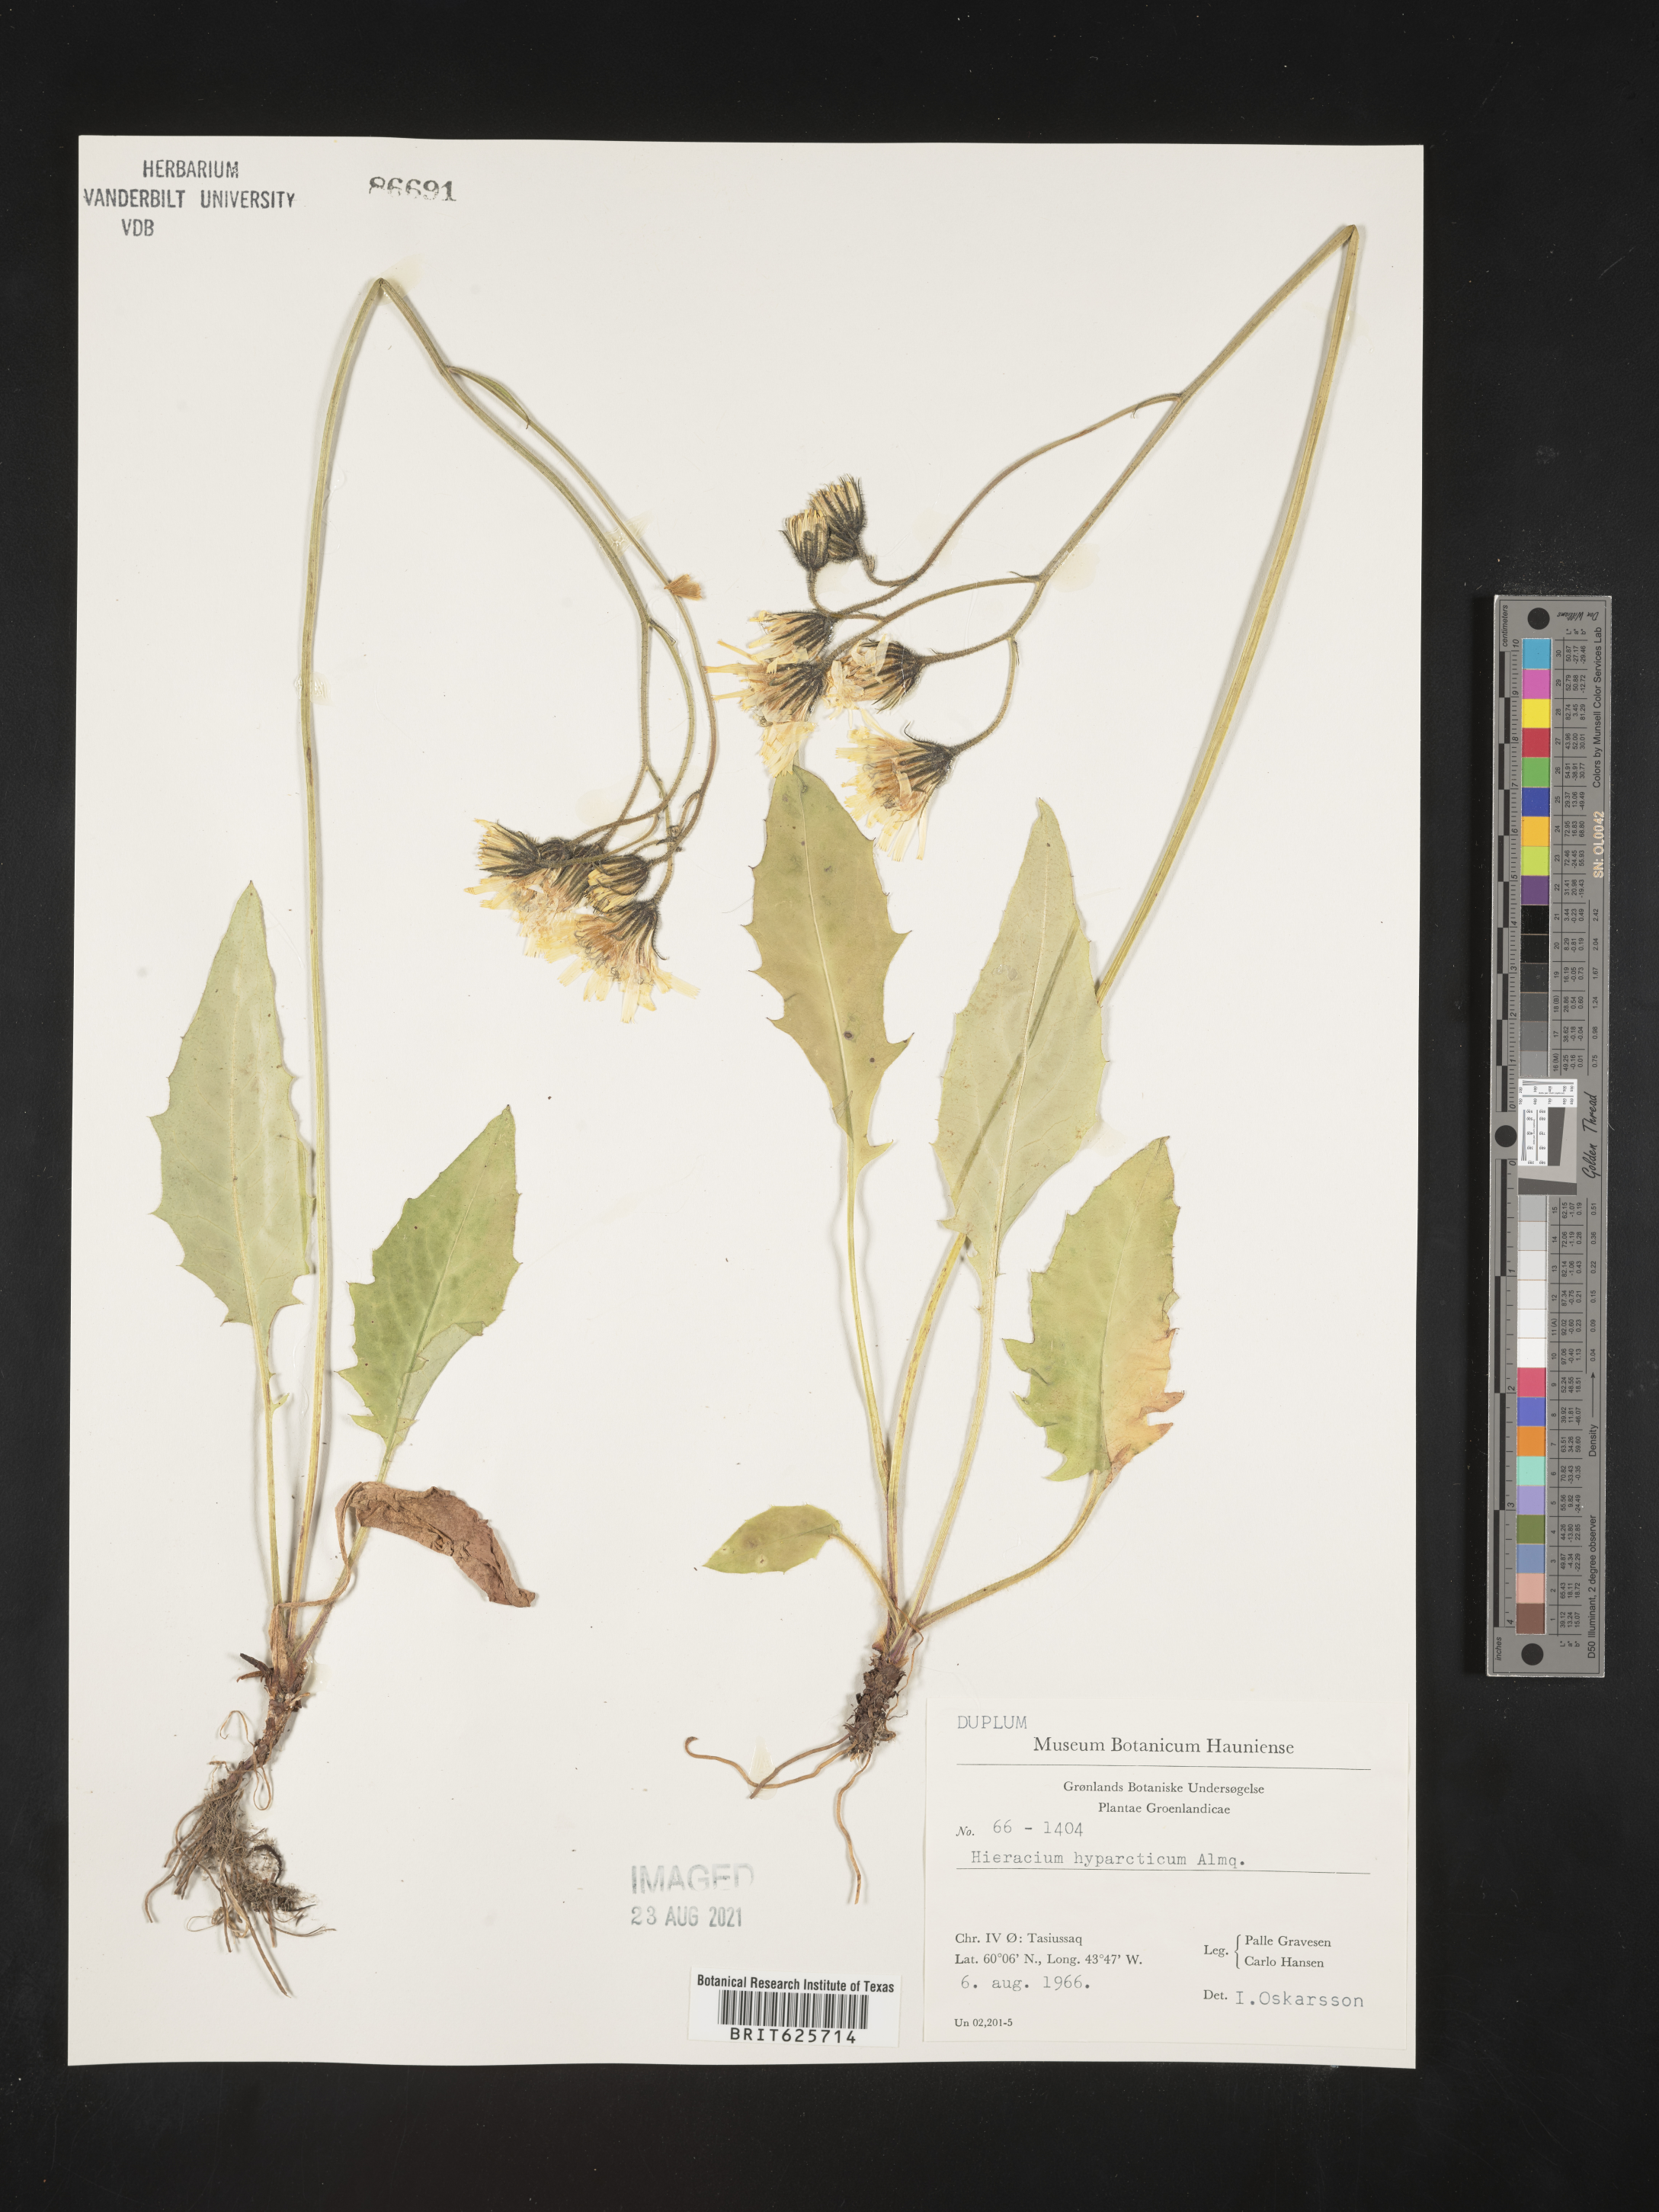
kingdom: Plantae
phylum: Tracheophyta
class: Magnoliopsida
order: Asterales
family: Asteraceae
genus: Hieracium
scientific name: Hieracium murorum
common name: Wall hawkweed
